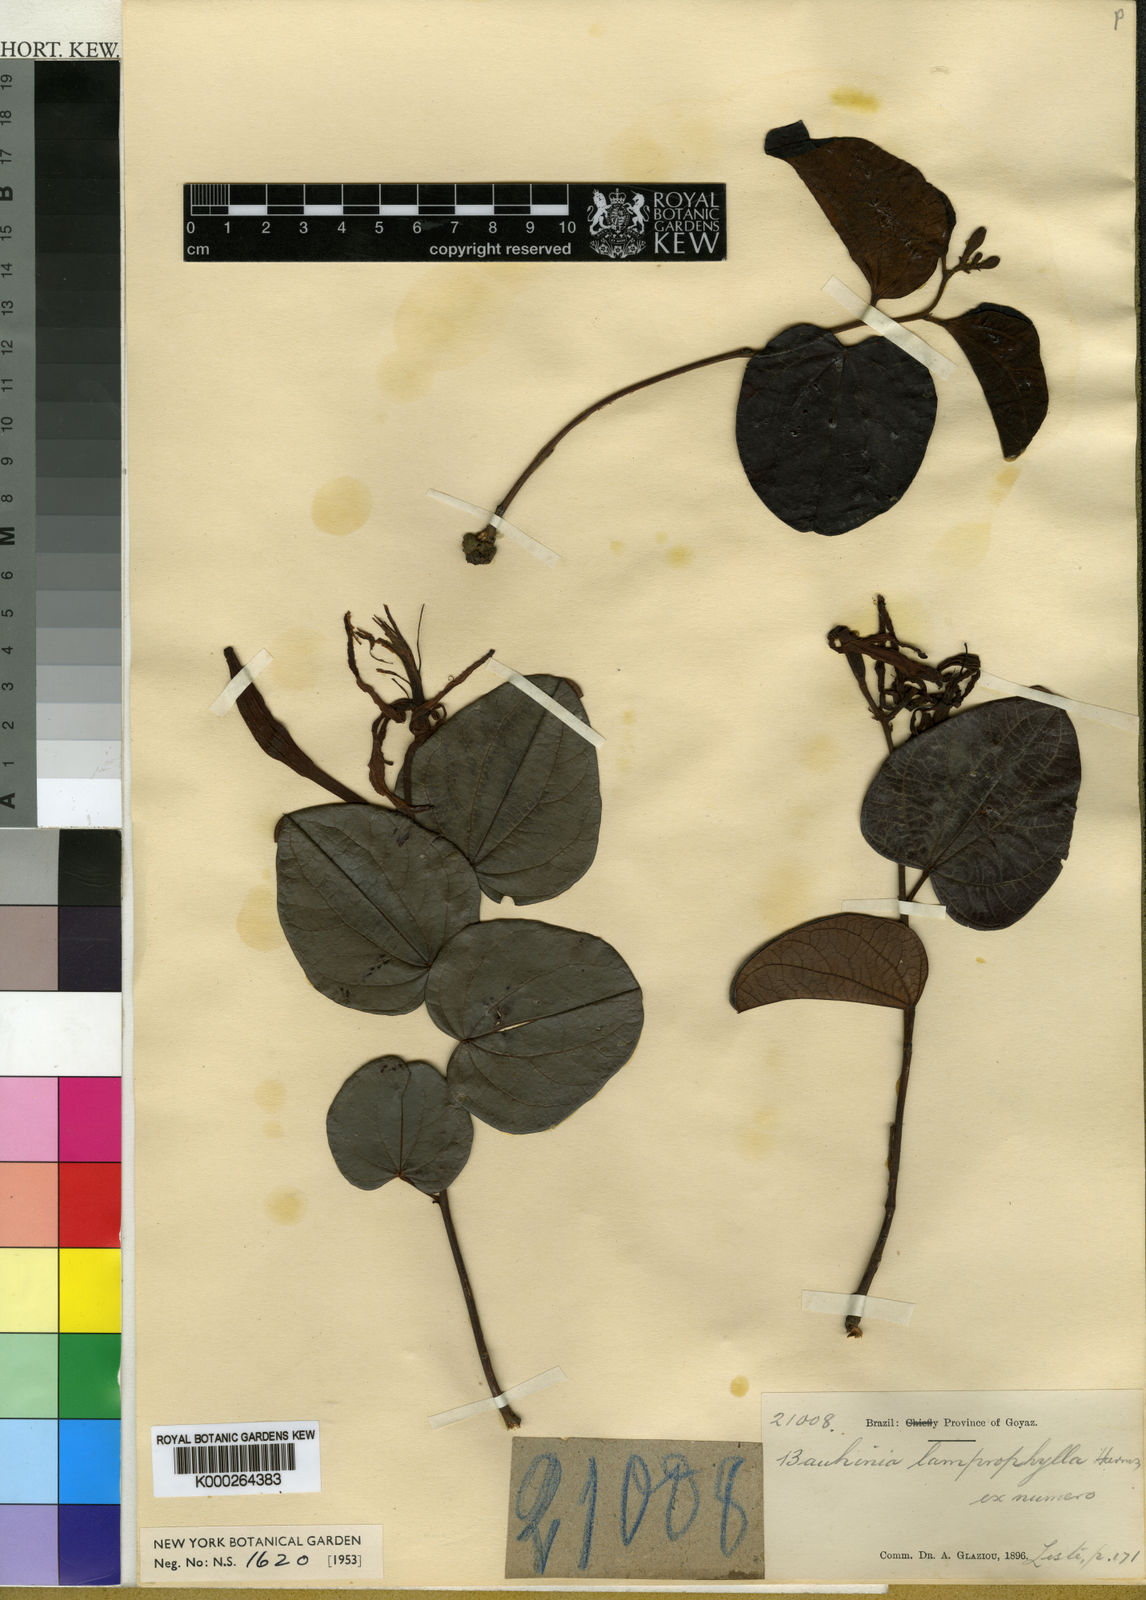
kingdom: Plantae
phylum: Tracheophyta
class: Magnoliopsida
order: Fabales
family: Fabaceae
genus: Bauhinia
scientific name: Bauhinia acuruana
